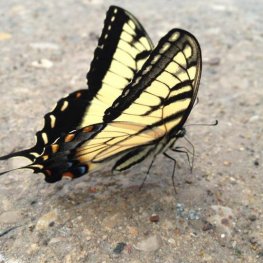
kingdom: Animalia
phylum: Arthropoda
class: Insecta
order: Lepidoptera
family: Papilionidae
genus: Pterourus
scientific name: Pterourus glaucus
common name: Eastern Tiger Swallowtail
